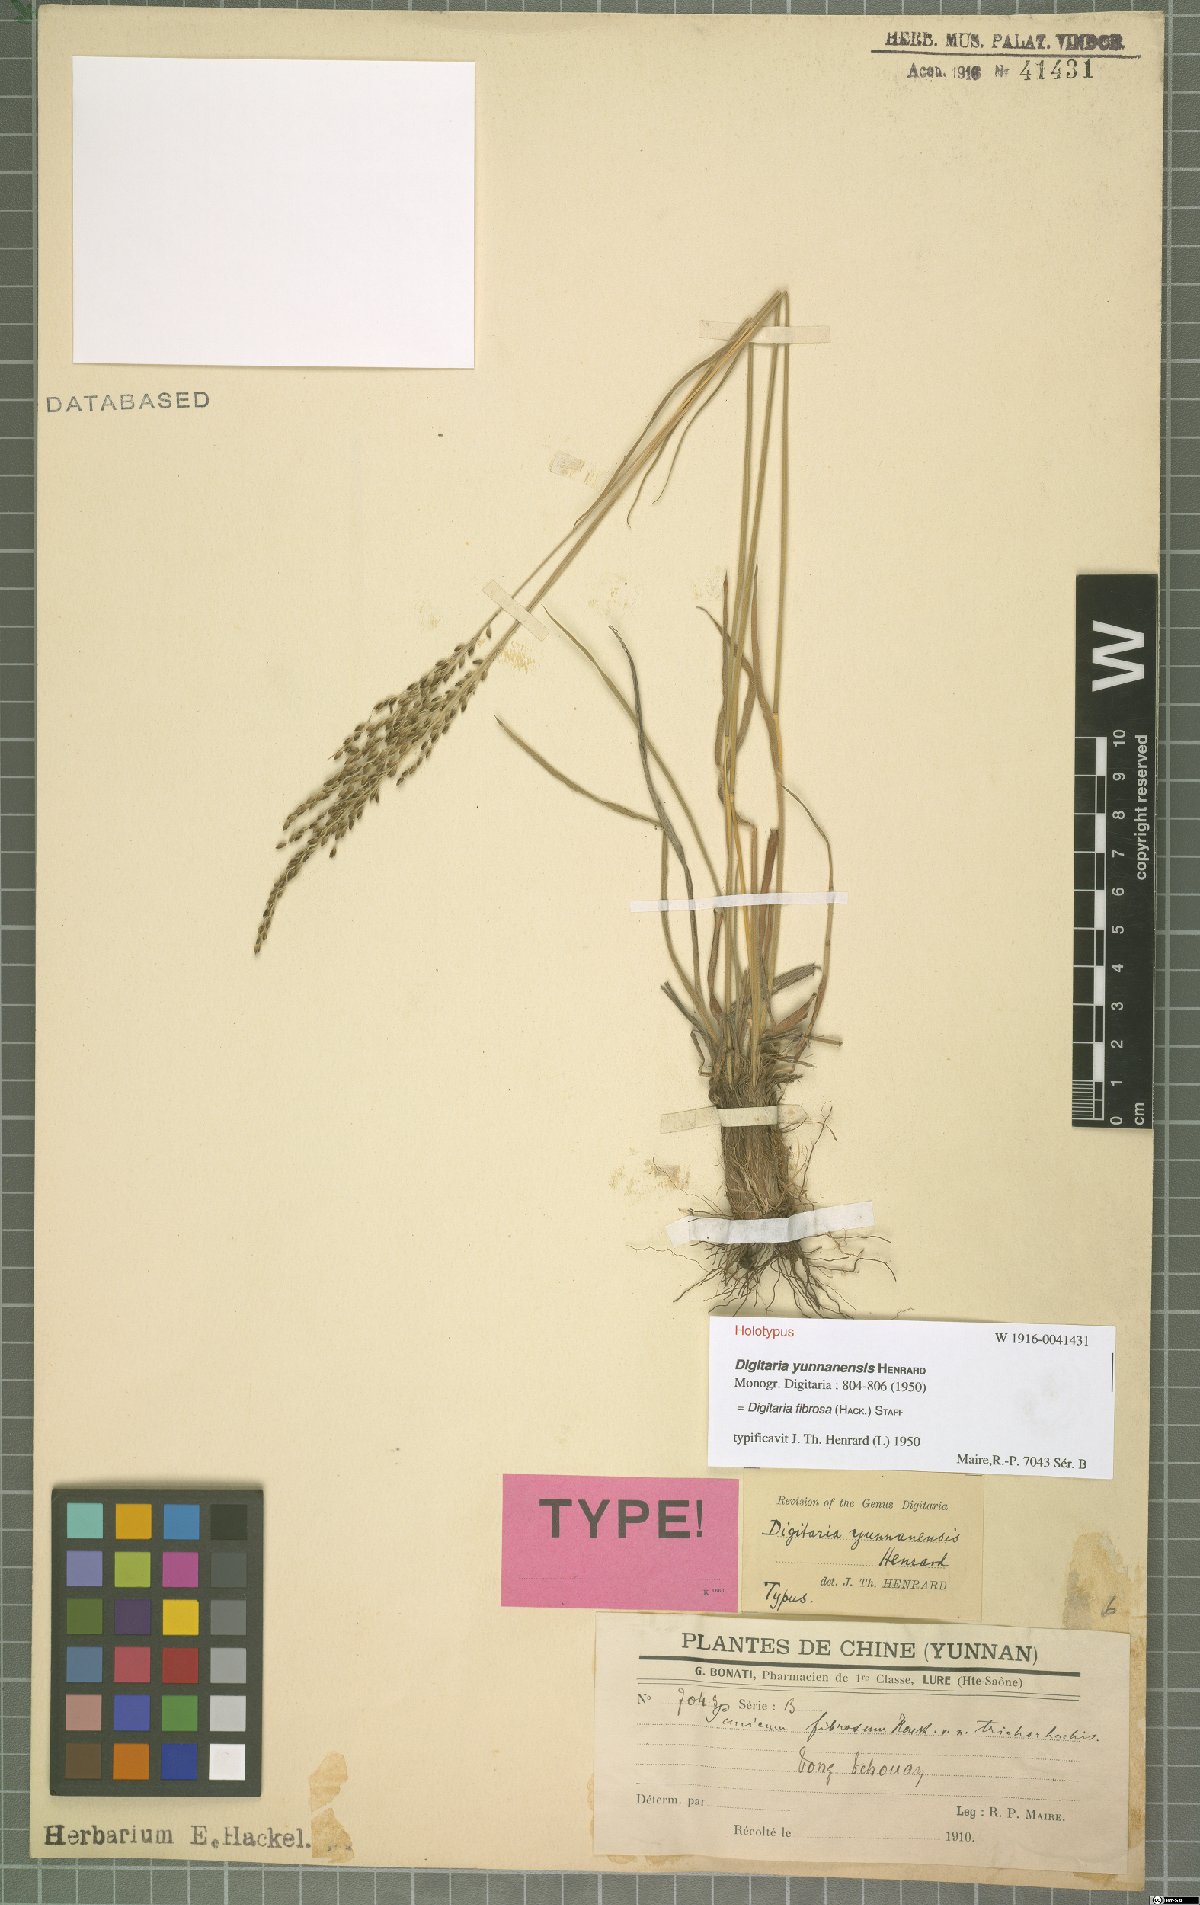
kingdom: Plantae
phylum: Tracheophyta
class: Liliopsida
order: Poales
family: Poaceae
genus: Digitaria
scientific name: Digitaria setifolia
